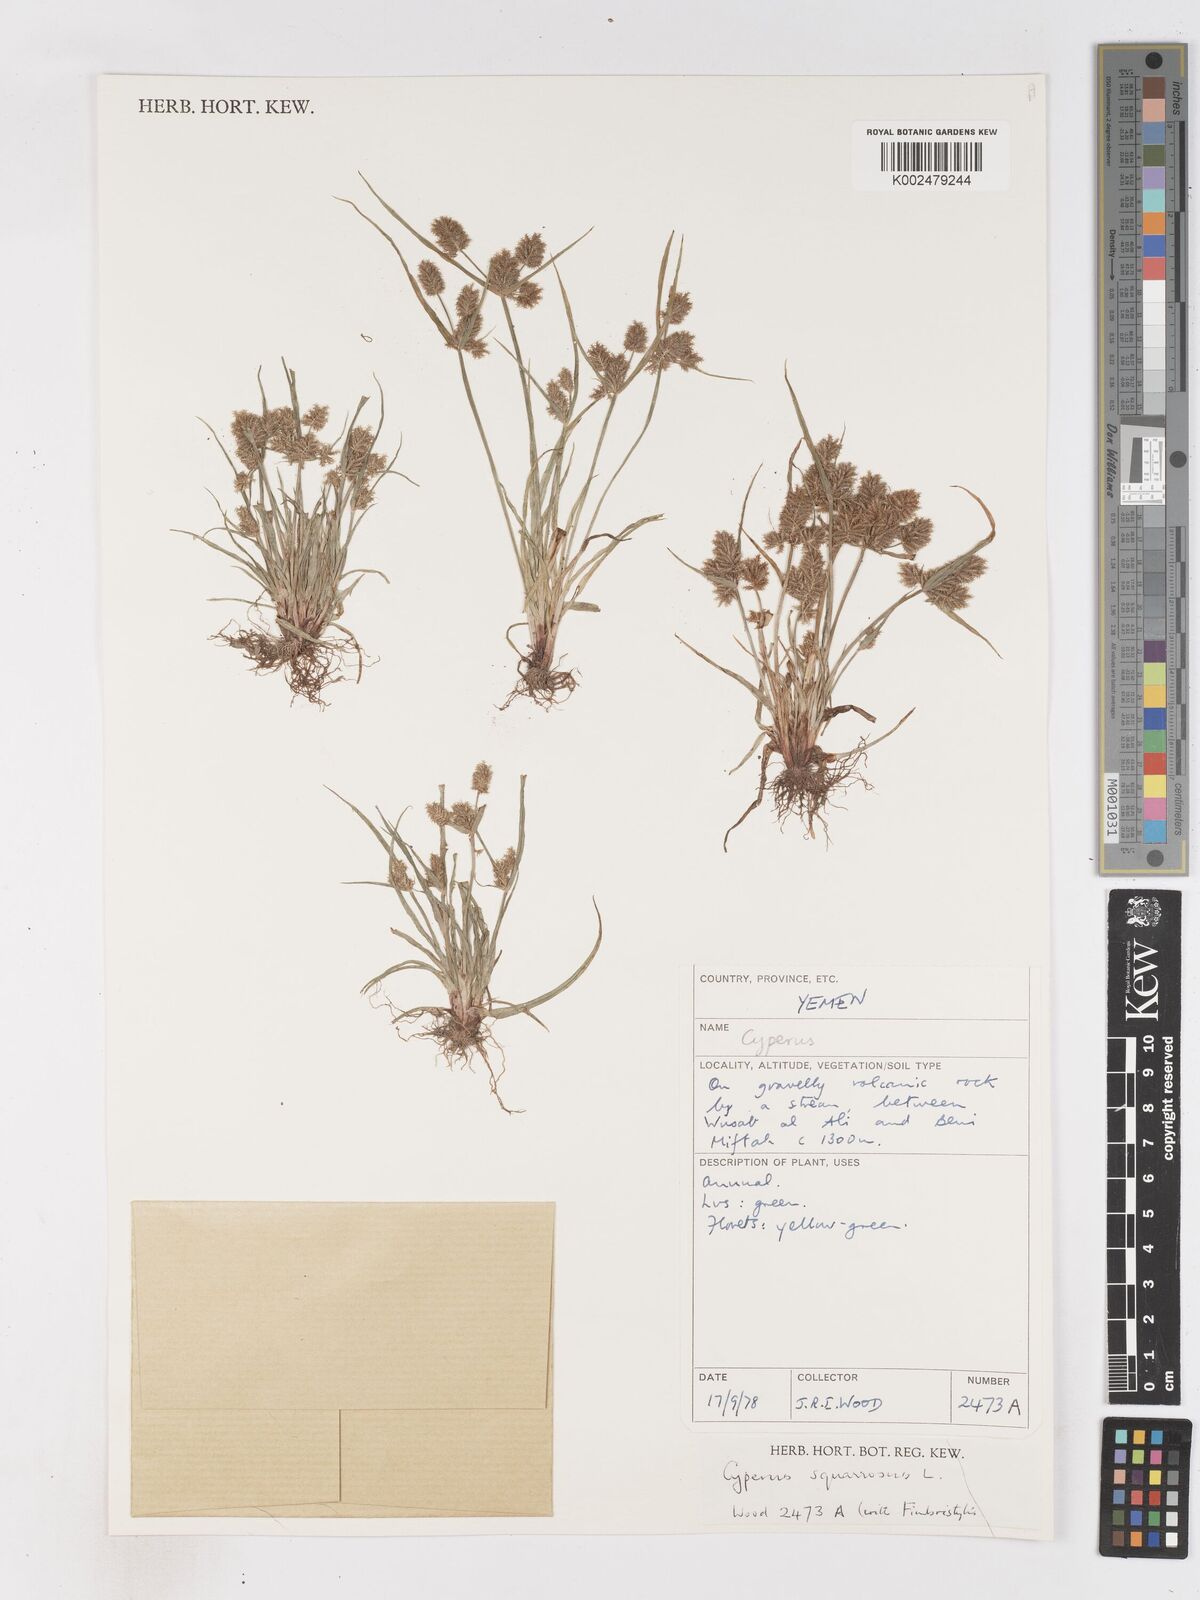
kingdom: Plantae
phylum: Tracheophyta
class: Liliopsida
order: Poales
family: Cyperaceae
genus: Cyperus
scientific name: Cyperus squarrosus
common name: Awned cyperus
